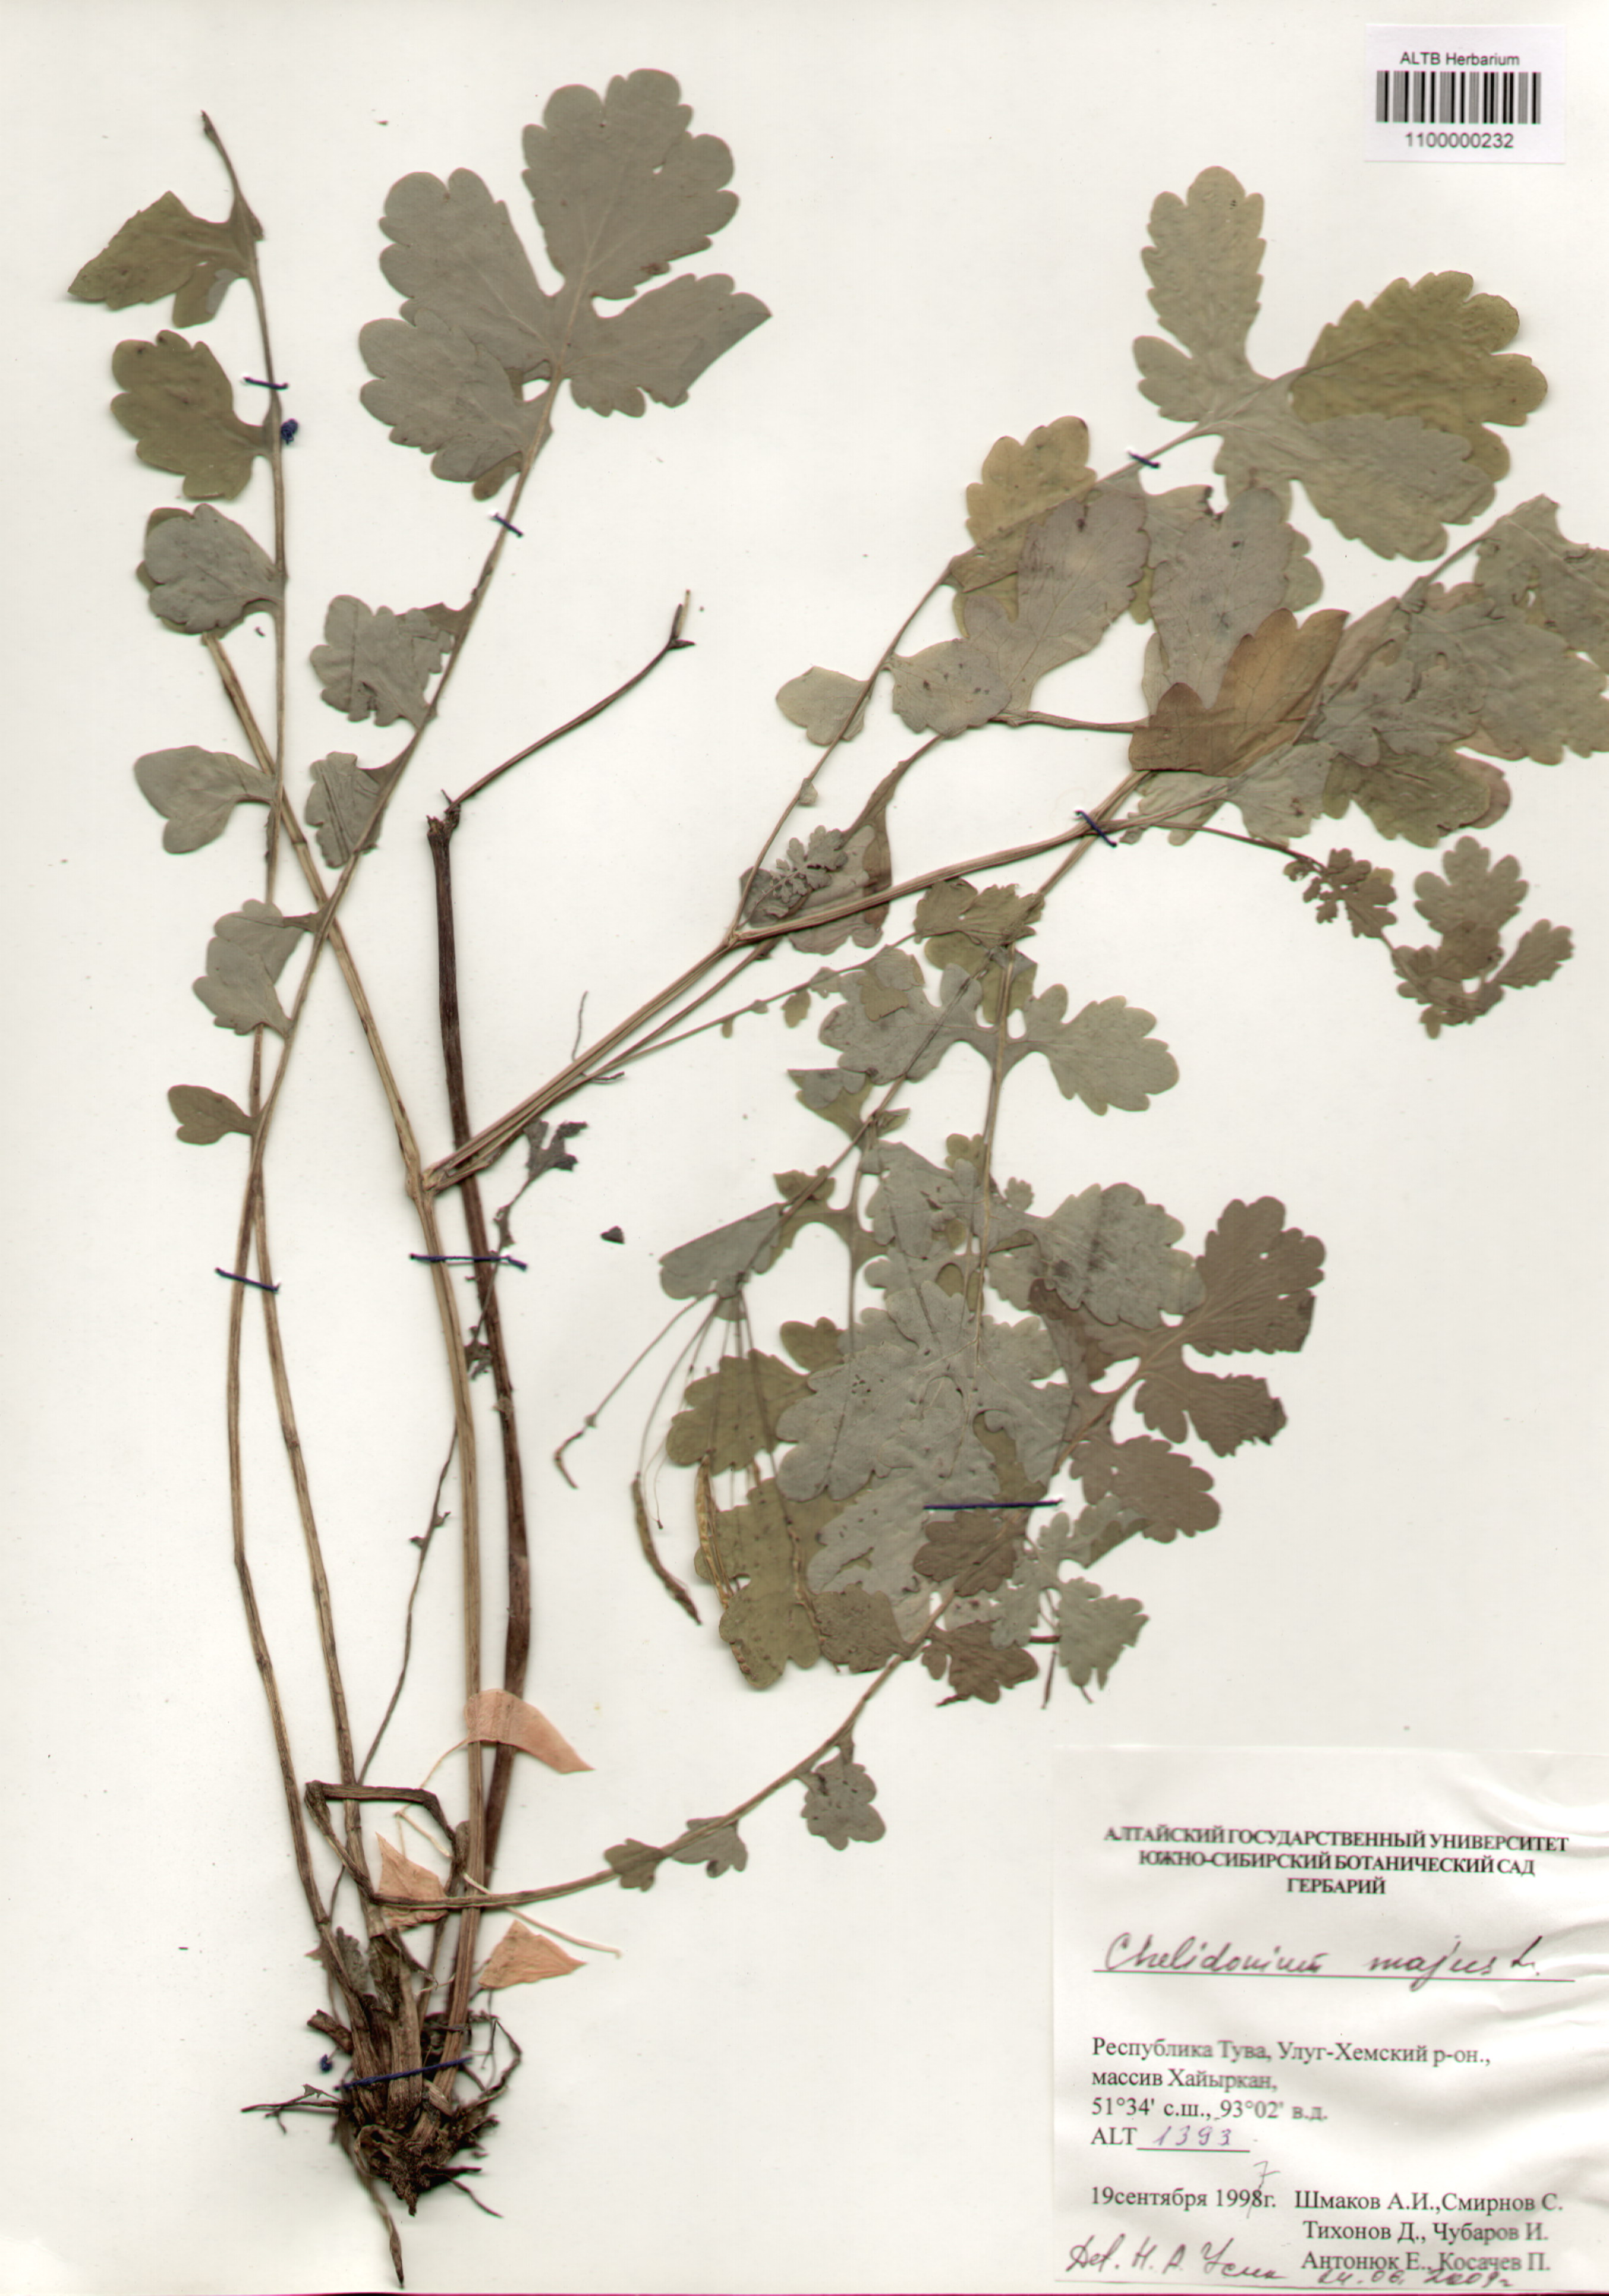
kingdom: Plantae
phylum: Tracheophyta
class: Magnoliopsida
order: Ranunculales
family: Papaveraceae
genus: Chelidonium
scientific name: Chelidonium majus
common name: Greater celandine
